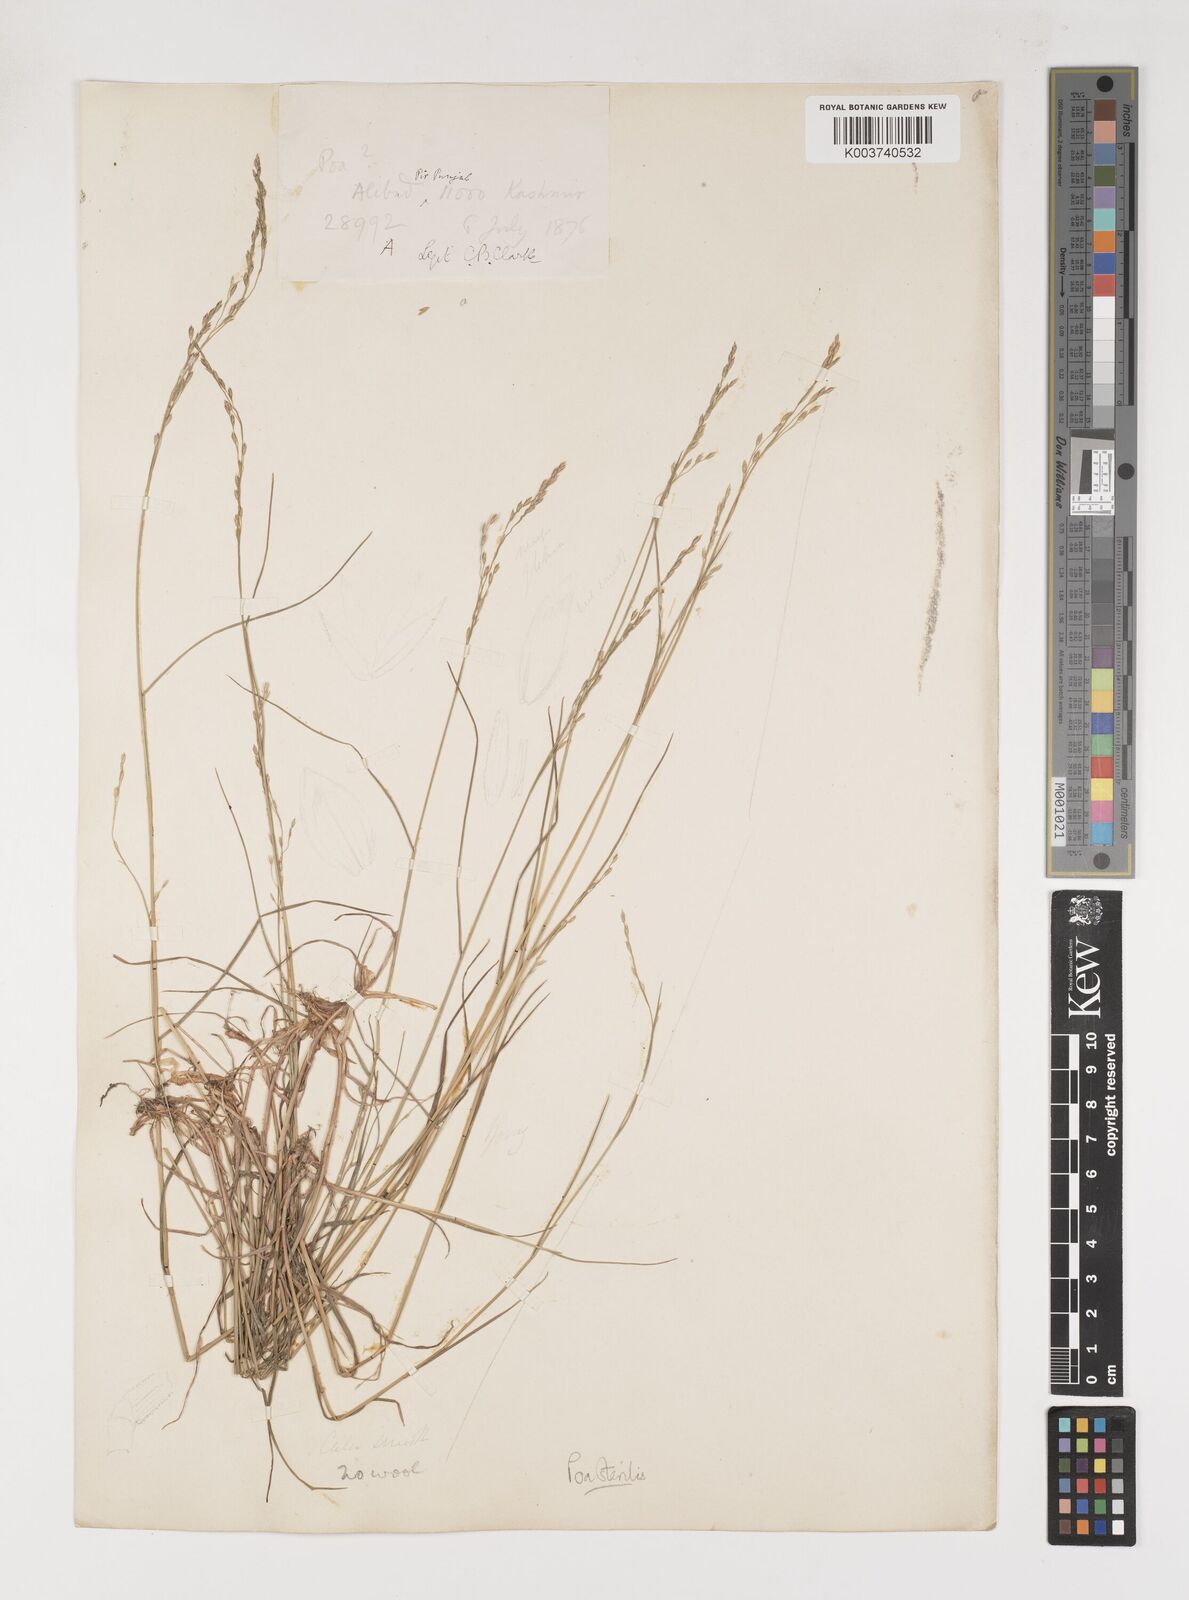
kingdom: Plantae
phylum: Tracheophyta
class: Liliopsida
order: Poales
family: Poaceae
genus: Poa
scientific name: Poa sterilis
